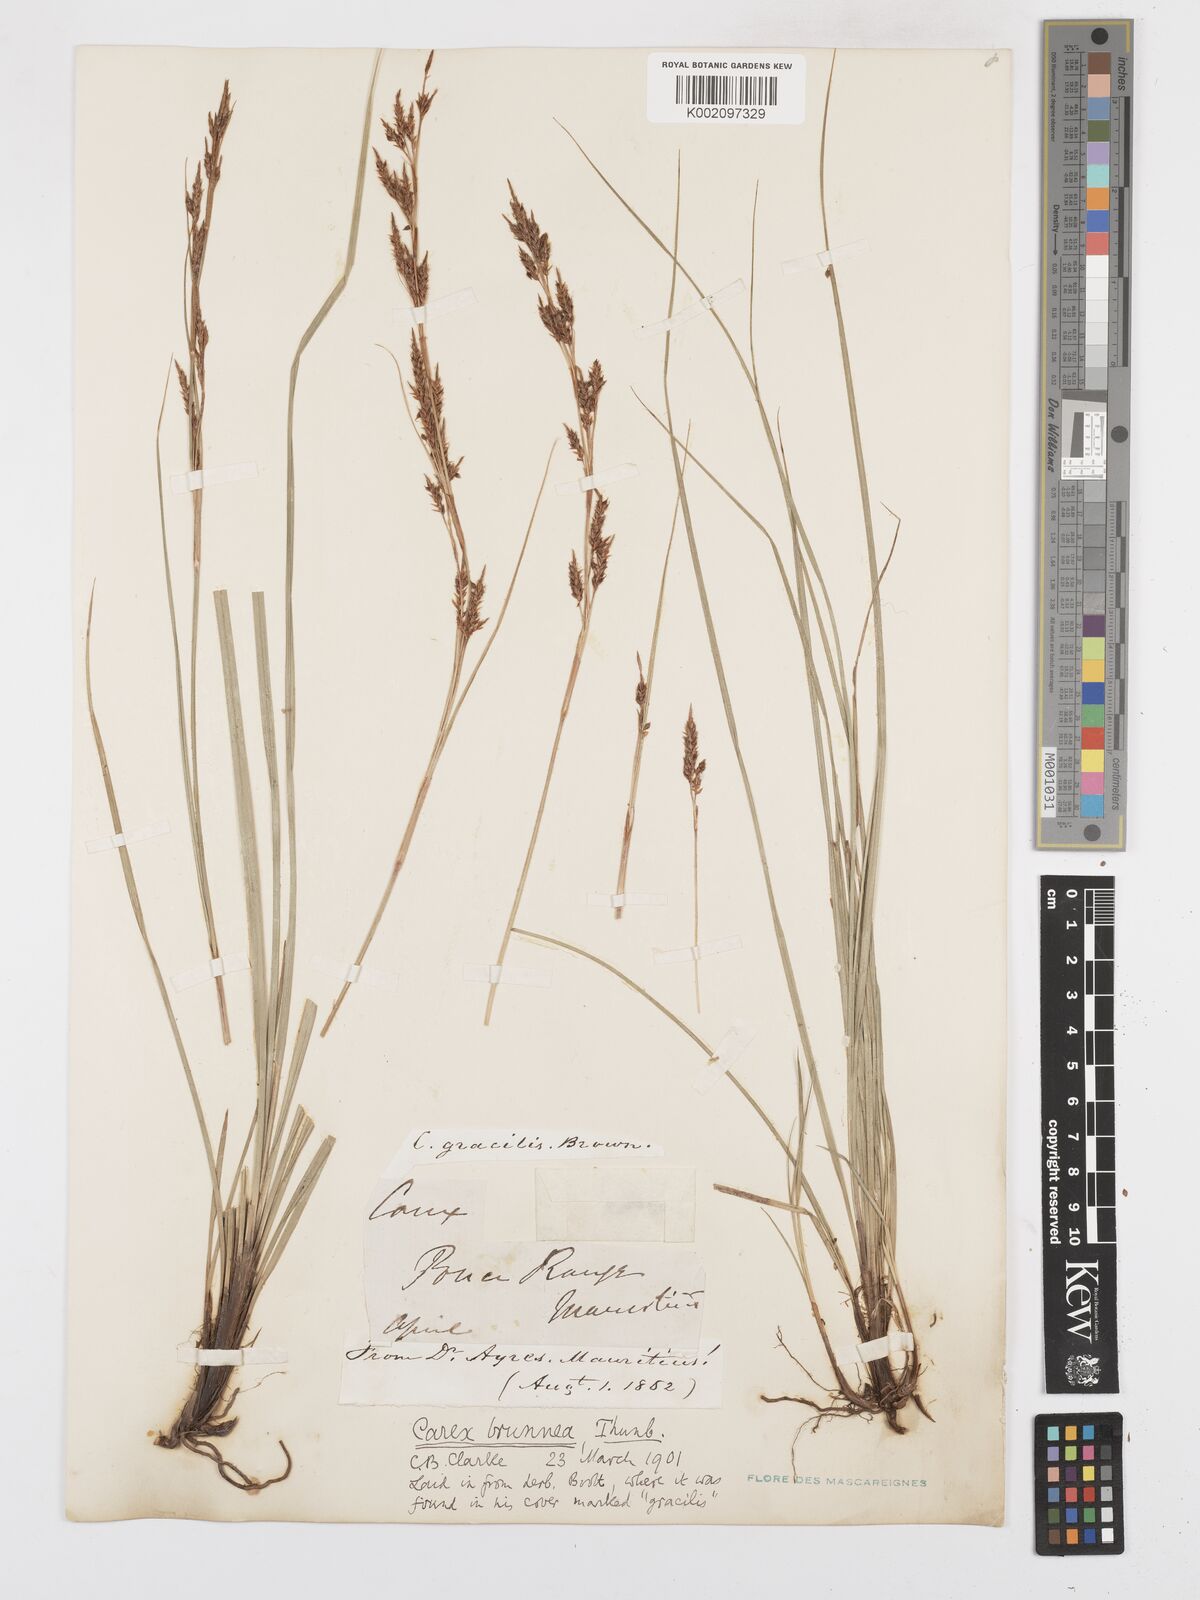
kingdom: Plantae
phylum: Tracheophyta
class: Liliopsida
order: Poales
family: Cyperaceae
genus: Carex
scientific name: Carex brunnea
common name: Greater brown sedge
